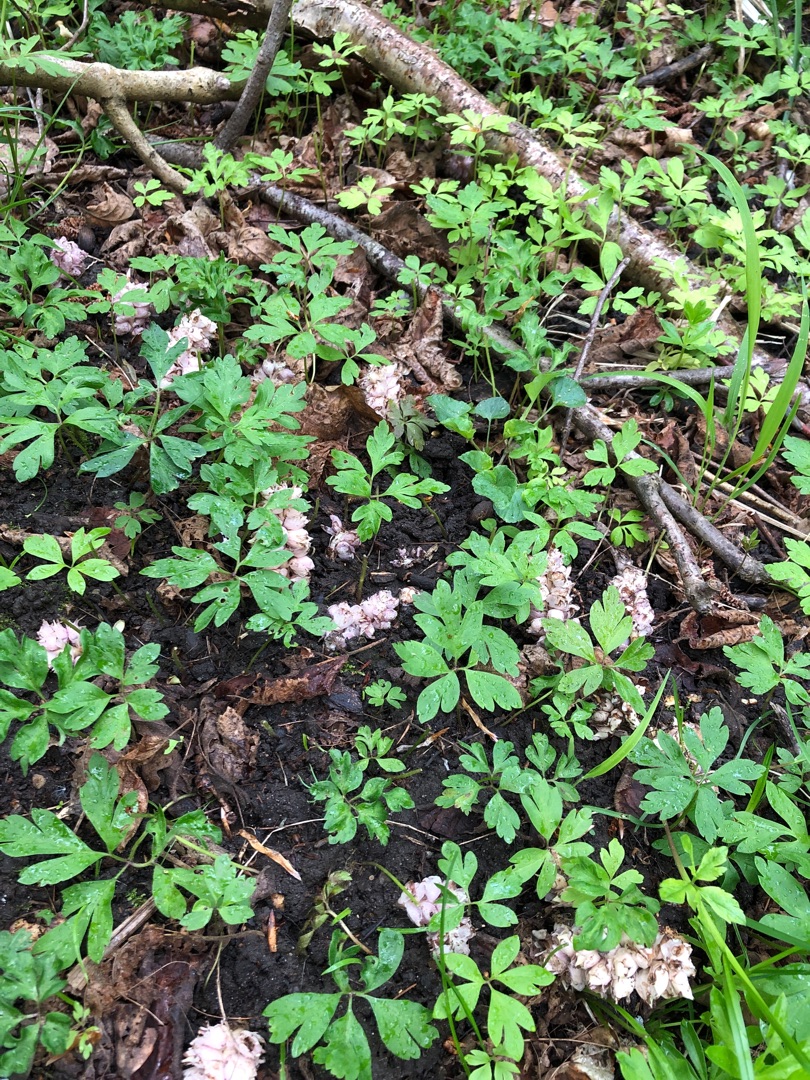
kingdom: Plantae
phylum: Tracheophyta
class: Magnoliopsida
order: Lamiales
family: Orobanchaceae
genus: Lathraea
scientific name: Lathraea squamaria
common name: Skælrod
